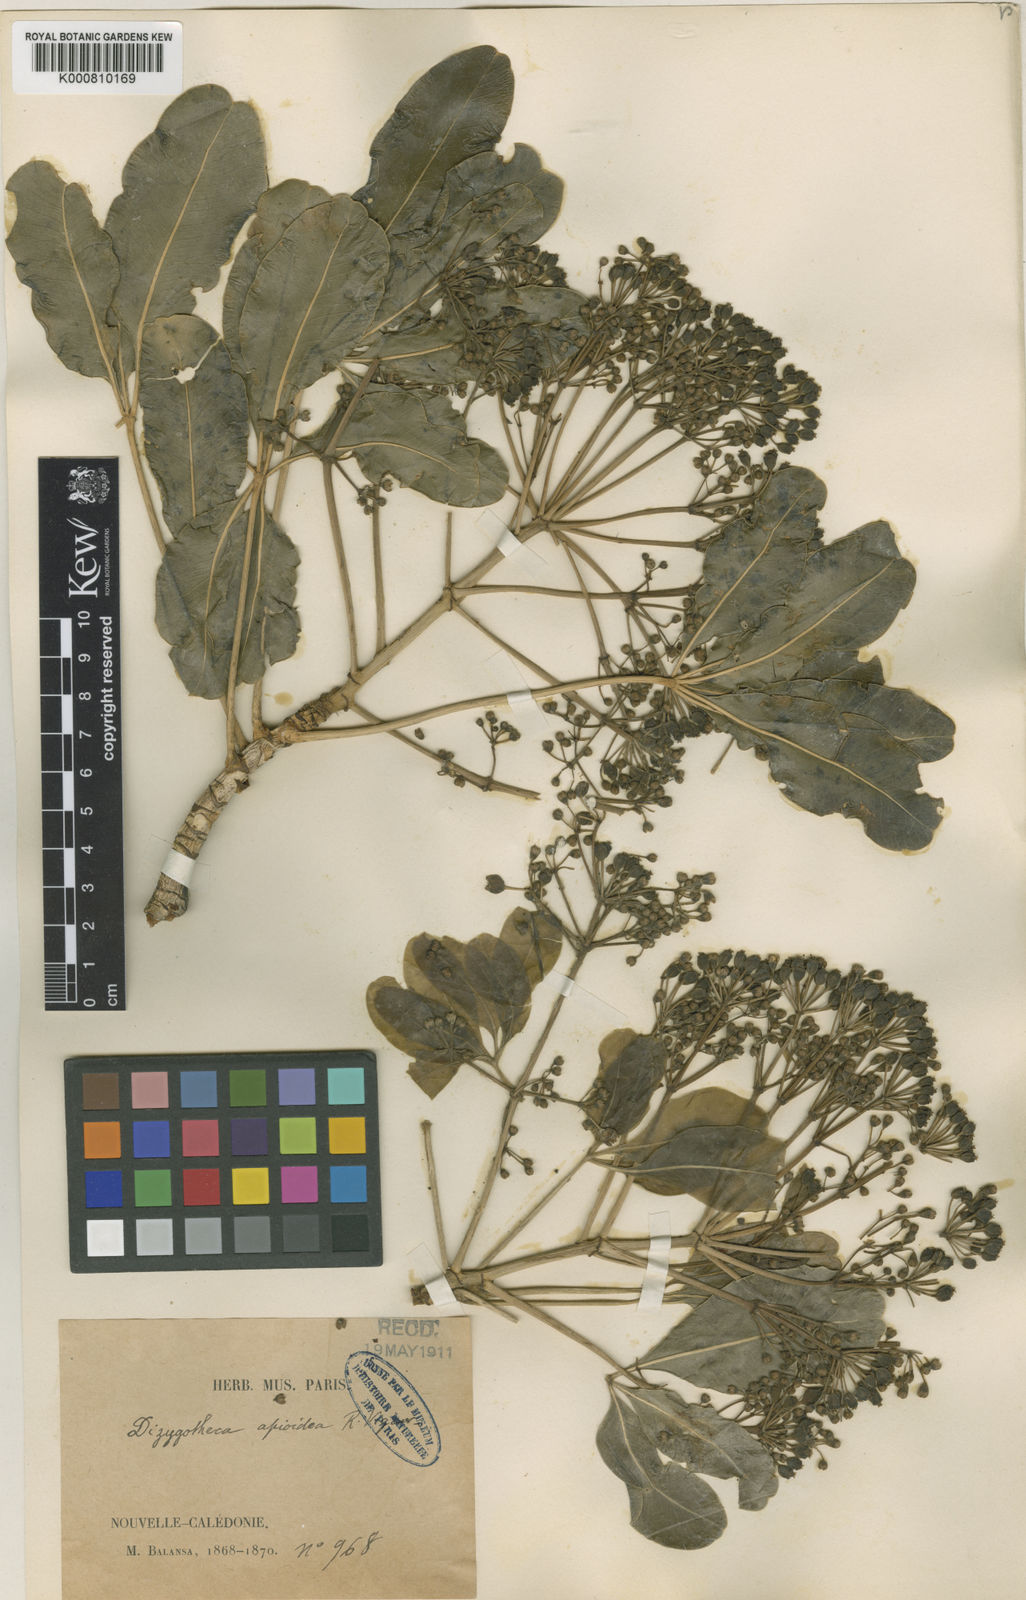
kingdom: Plantae
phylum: Tracheophyta
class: Magnoliopsida
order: Apiales
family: Araliaceae
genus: Schefflera
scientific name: Schefflera
